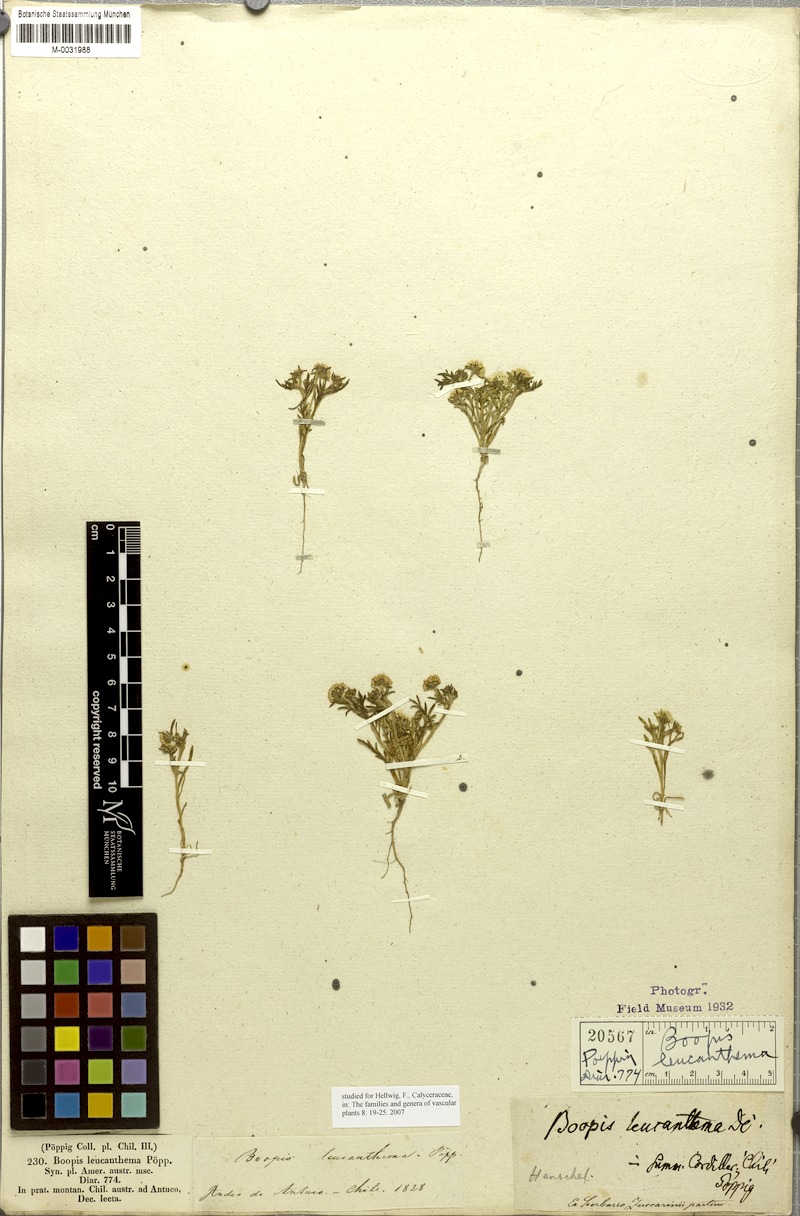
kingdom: Plantae
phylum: Tracheophyta
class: Magnoliopsida
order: Asterales
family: Calyceraceae
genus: Leucocera
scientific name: Leucocera leucanthema
